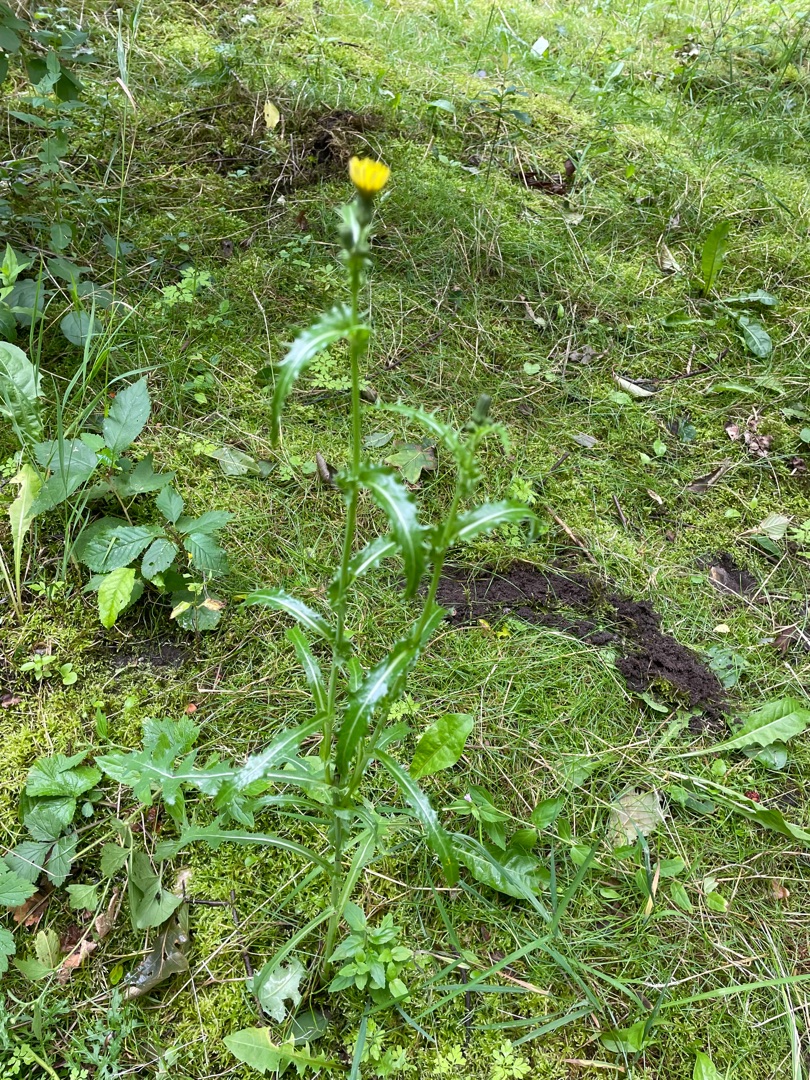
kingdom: Plantae
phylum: Tracheophyta
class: Magnoliopsida
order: Asterales
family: Asteraceae
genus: Sonchus
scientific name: Sonchus asper
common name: Ru svinemælk
